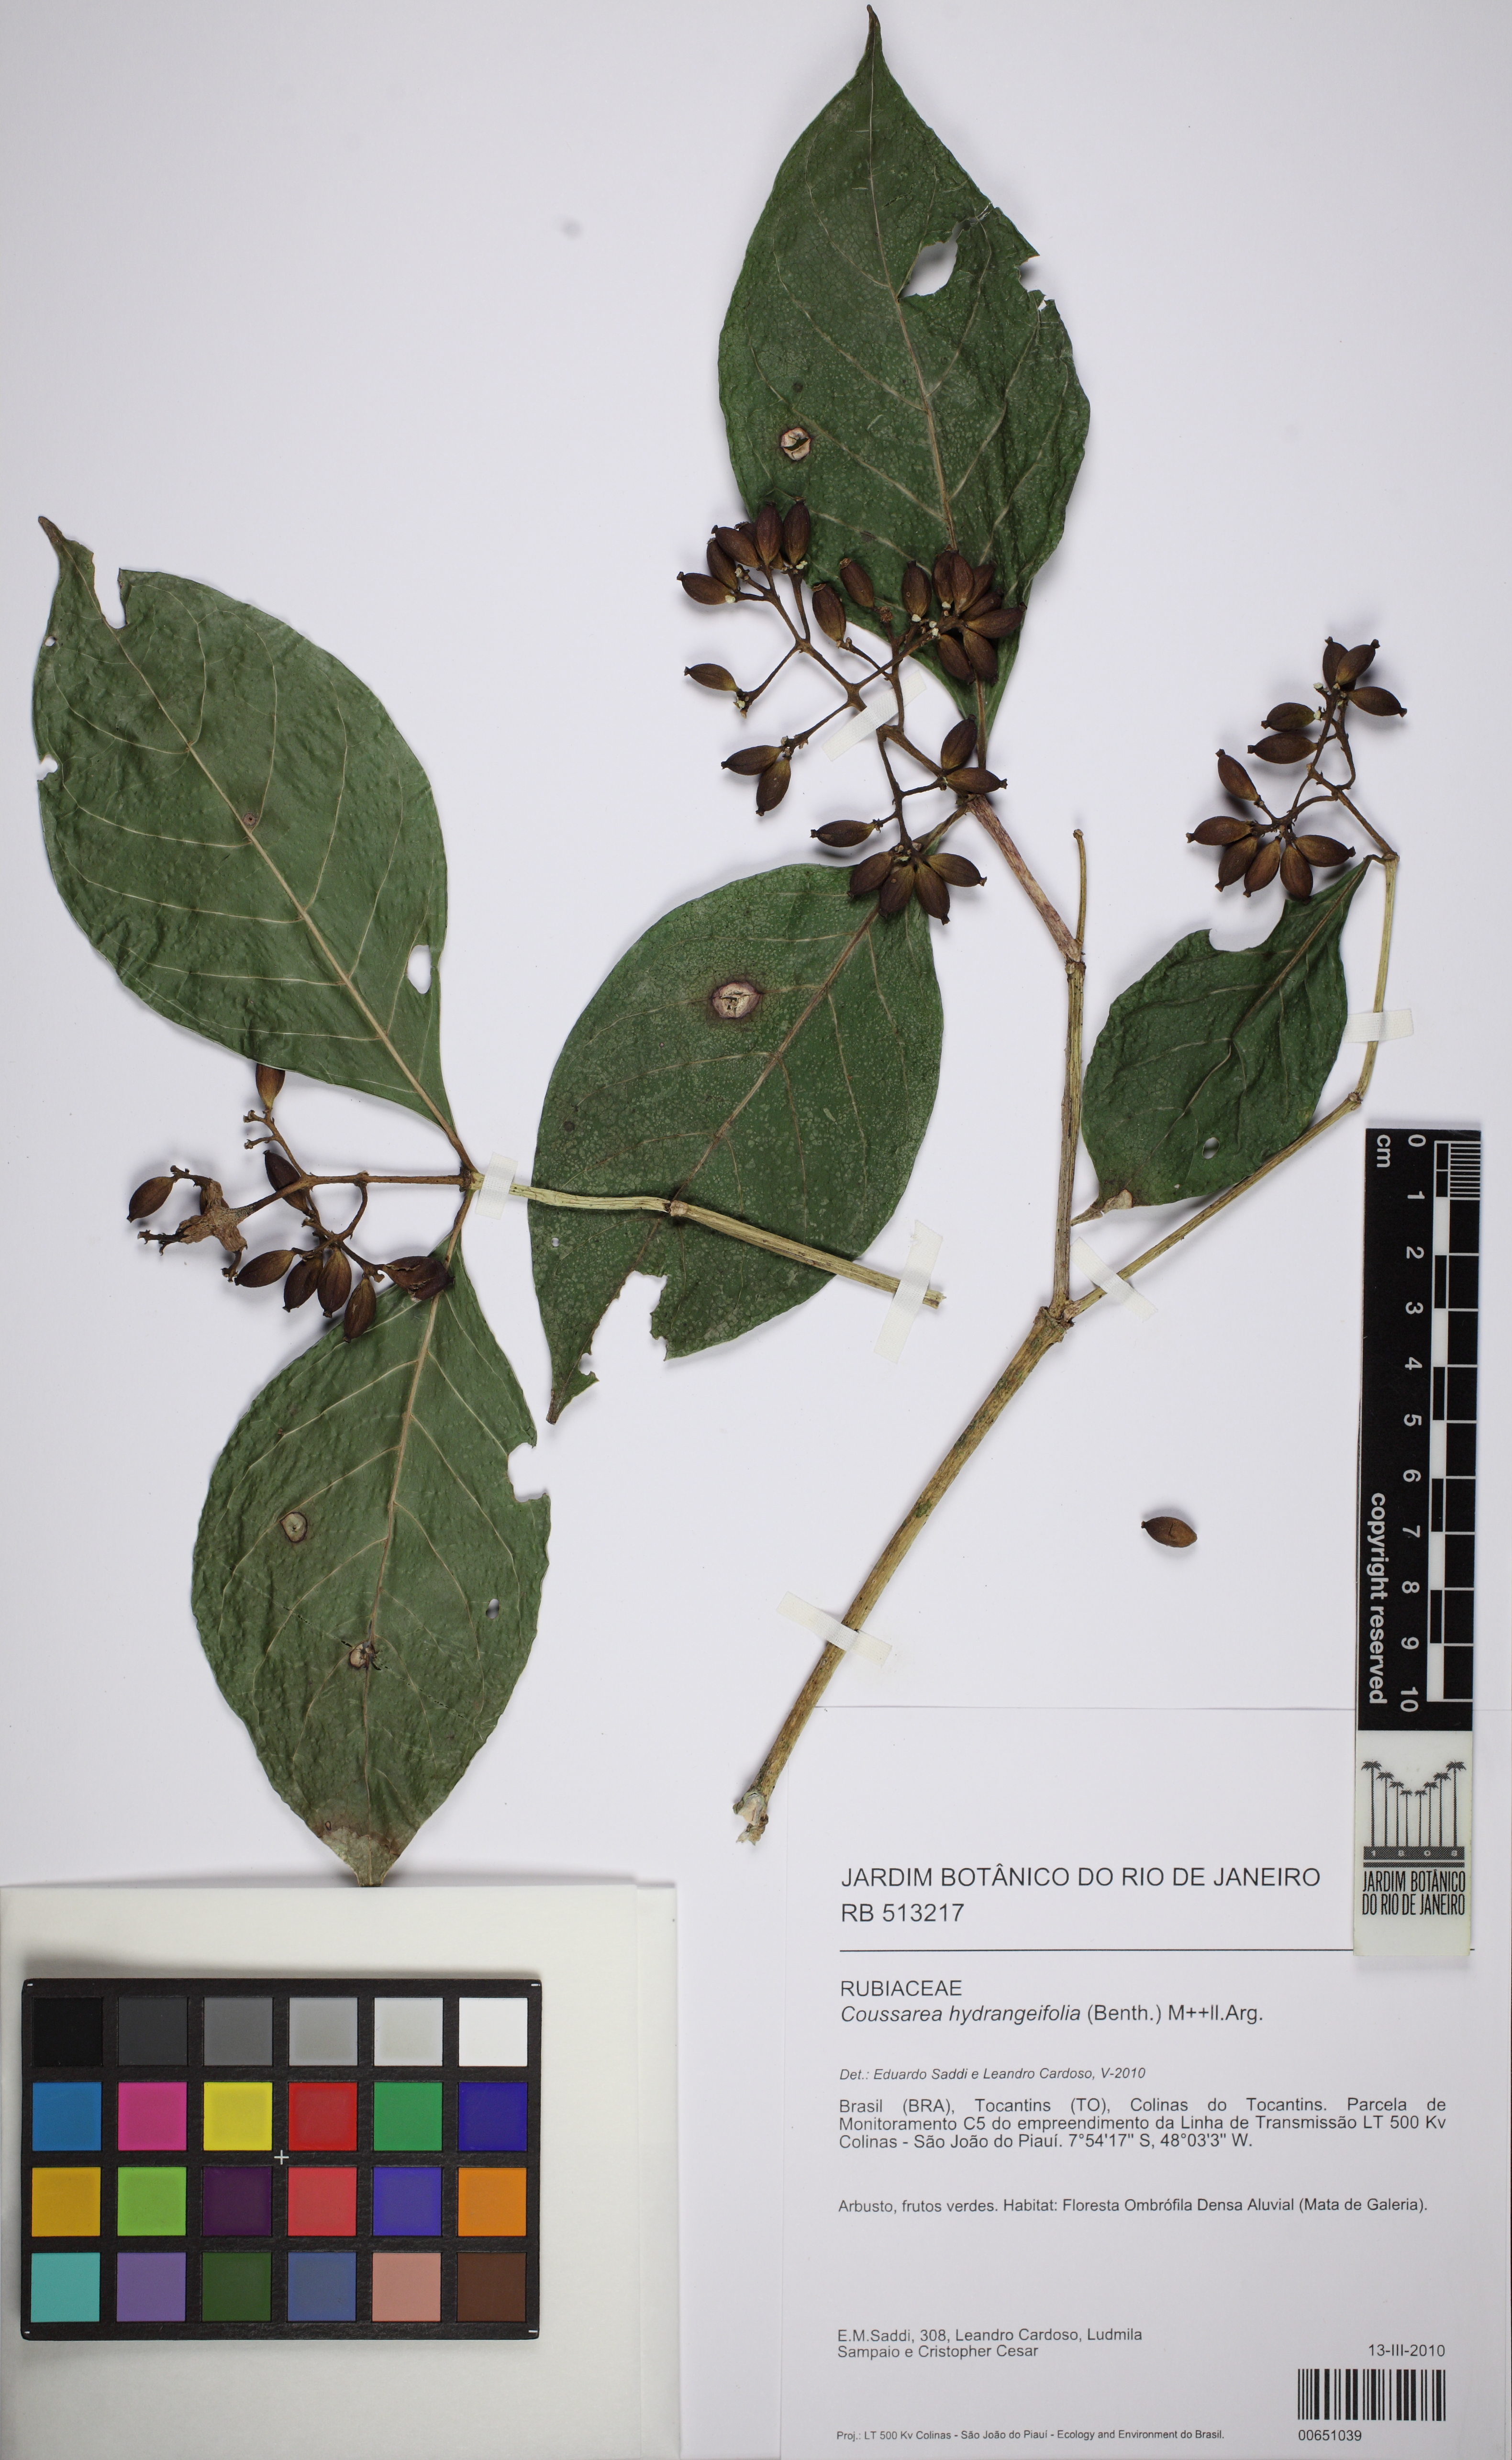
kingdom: Plantae
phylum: Tracheophyta
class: Magnoliopsida
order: Gentianales
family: Rubiaceae
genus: Coussarea
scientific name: Coussarea hydrangeifolia
